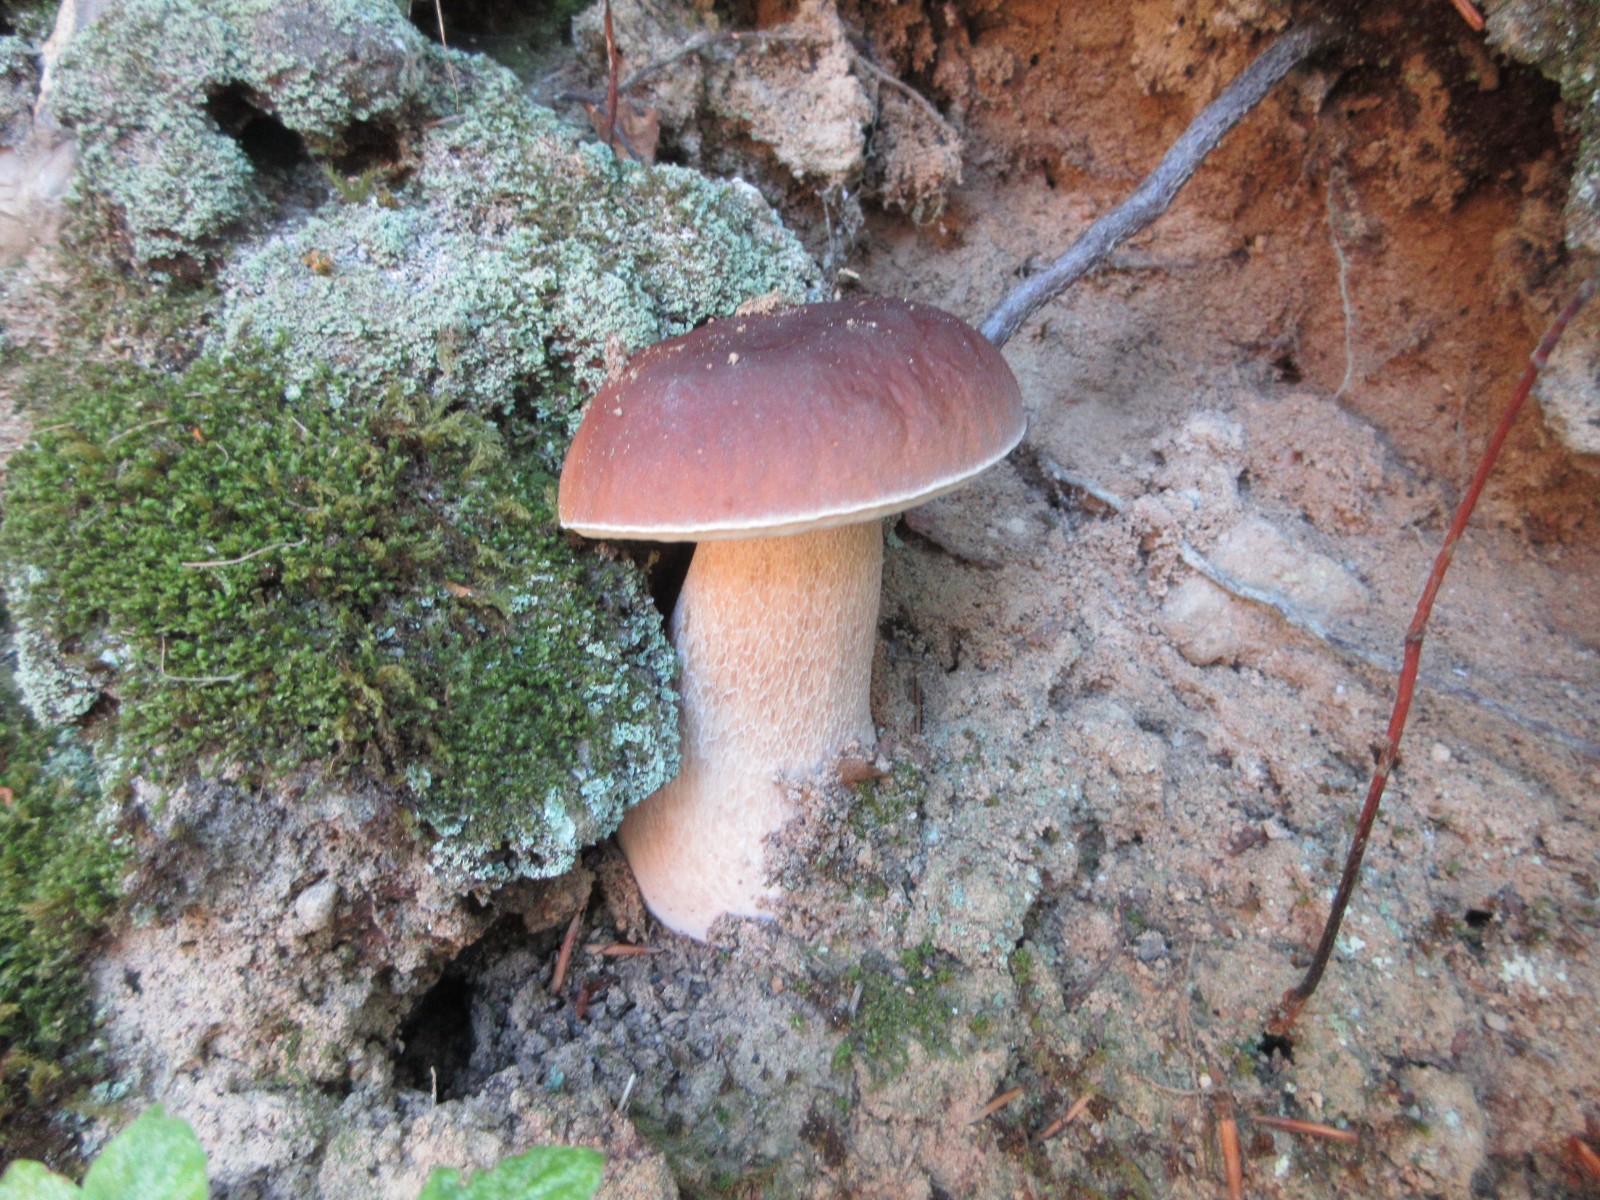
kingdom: Fungi
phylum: Basidiomycota
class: Agaricomycetes
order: Boletales
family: Boletaceae
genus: Boletus
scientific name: Boletus edulis
